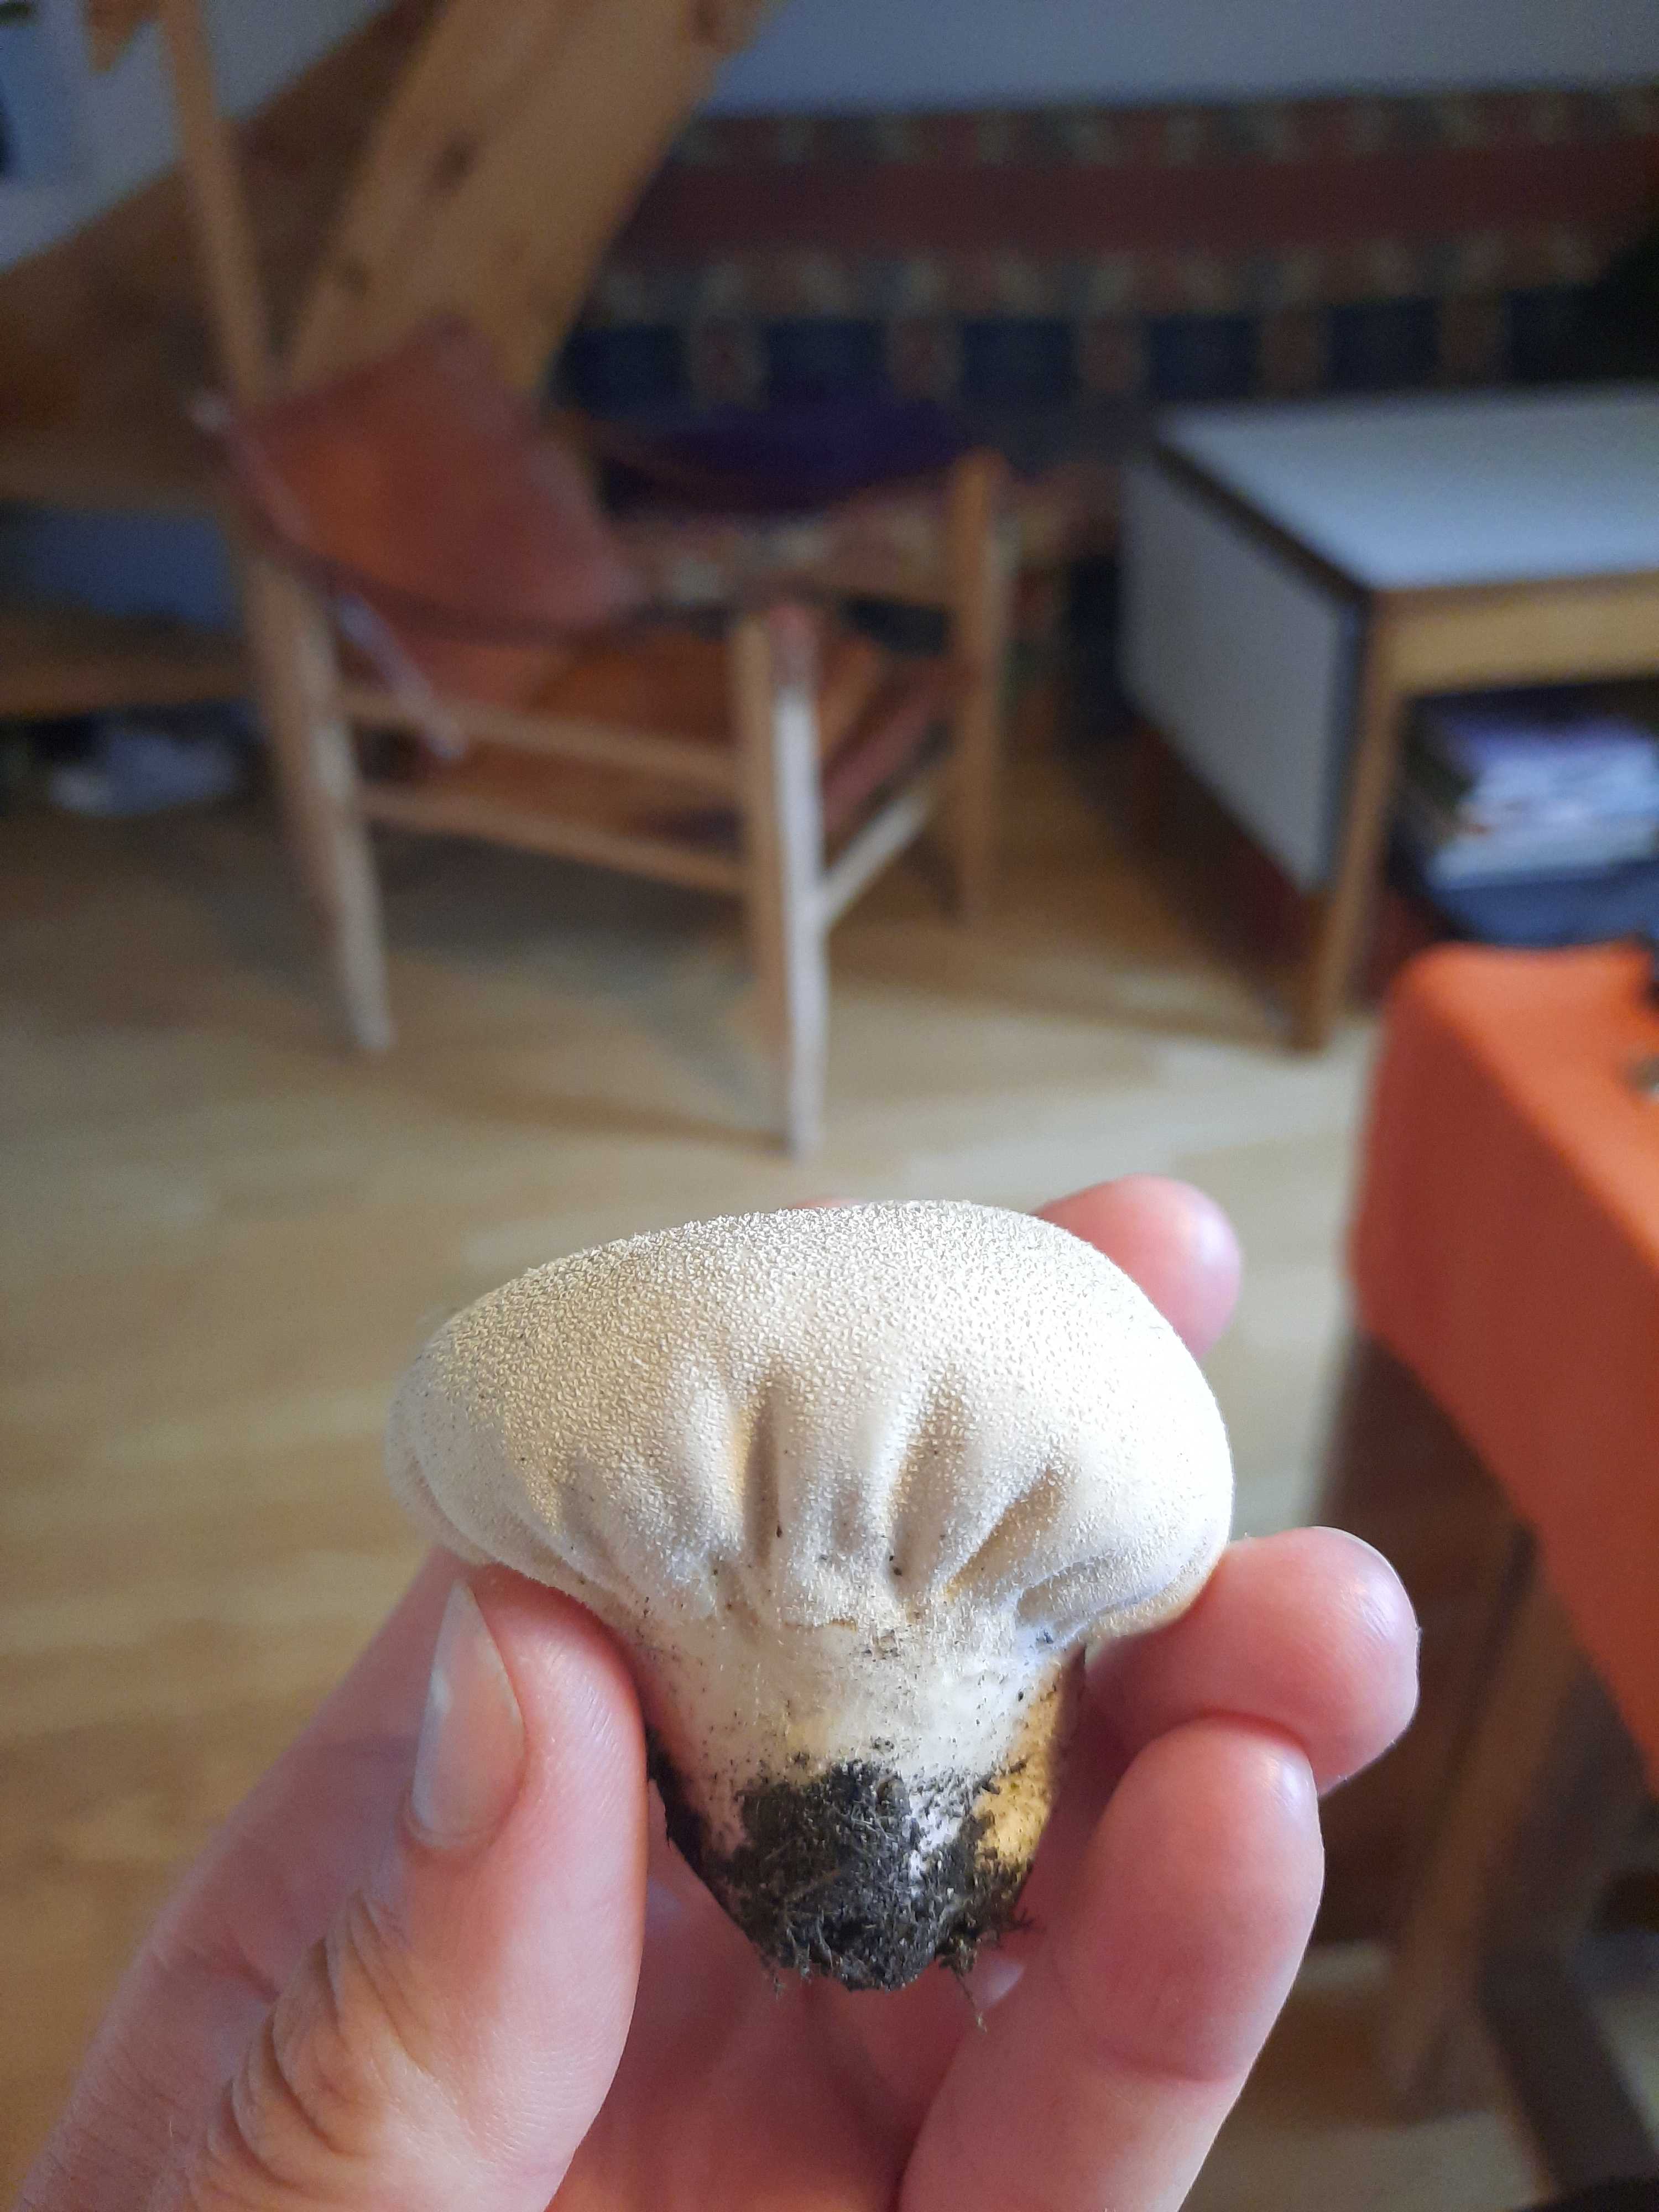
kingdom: Fungi
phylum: Basidiomycota
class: Agaricomycetes
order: Agaricales
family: Lycoperdaceae
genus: Lycoperdon
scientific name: Lycoperdon pratense
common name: flad støvbold
